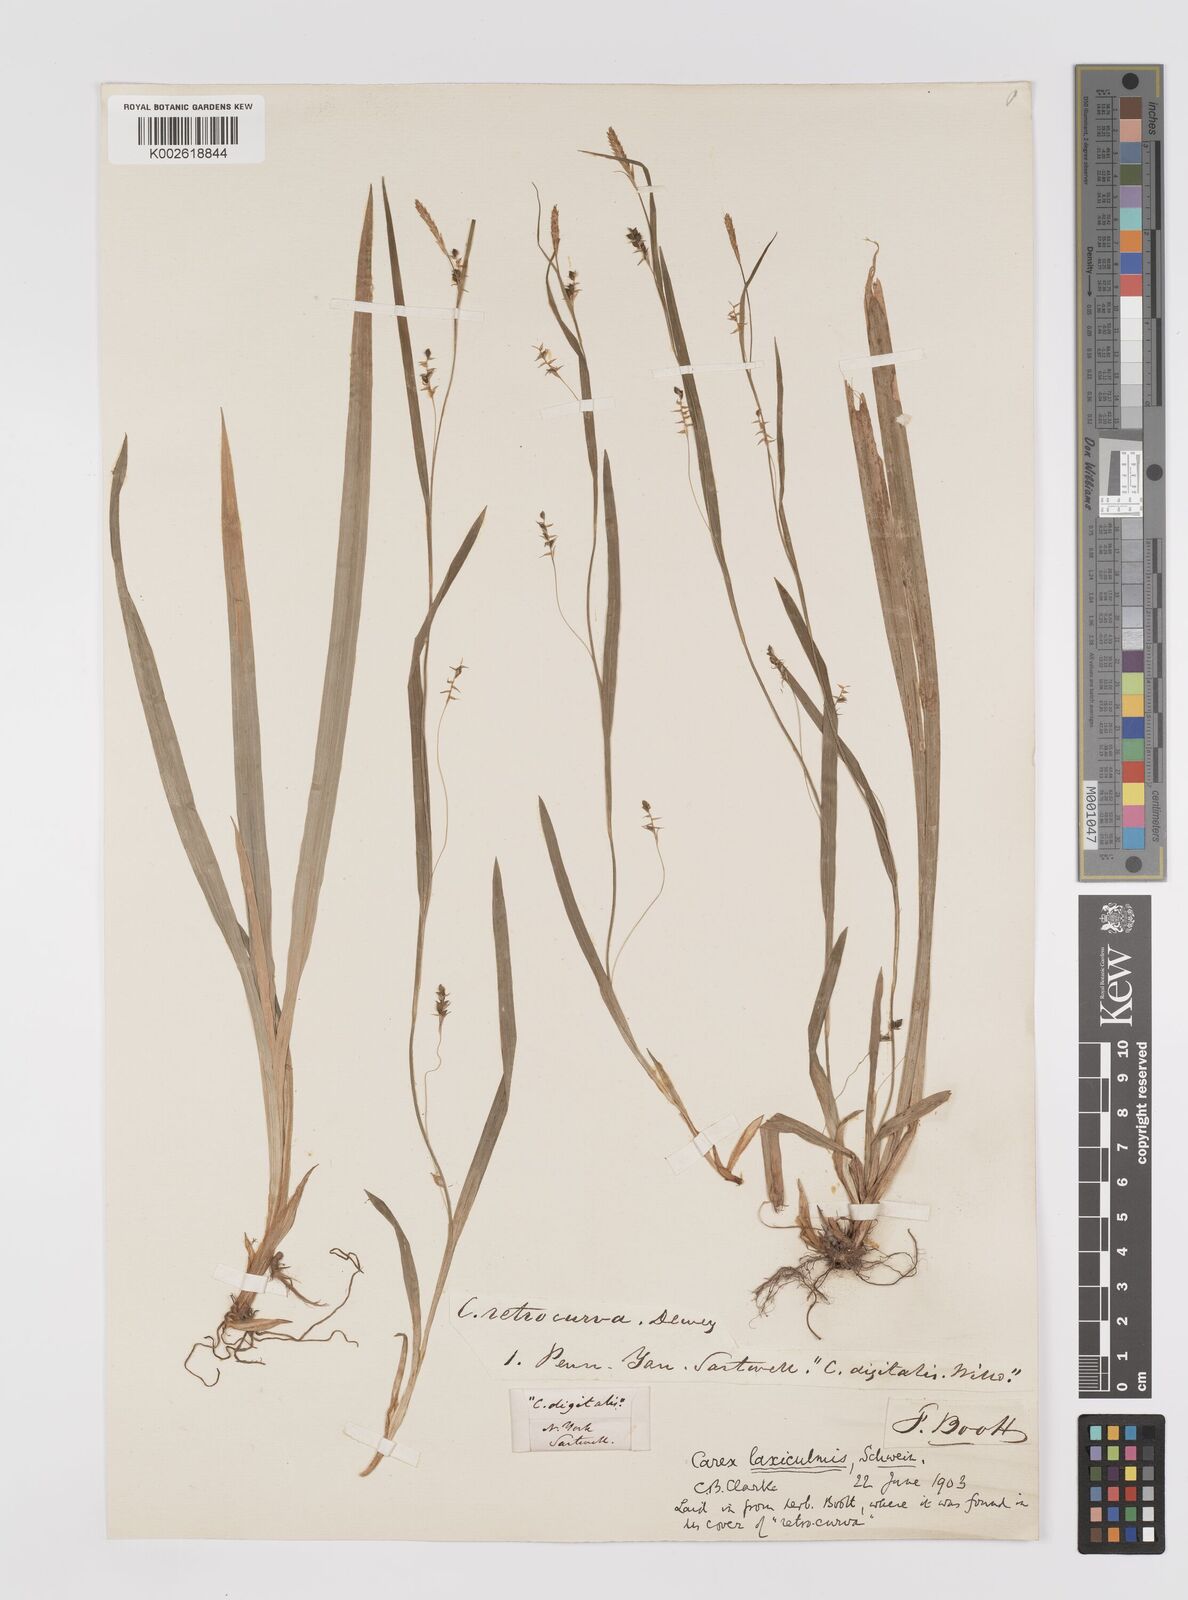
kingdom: Plantae
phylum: Tracheophyta
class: Liliopsida
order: Poales
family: Cyperaceae
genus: Carex
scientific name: Carex laxiculmis
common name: Spreading sedge
